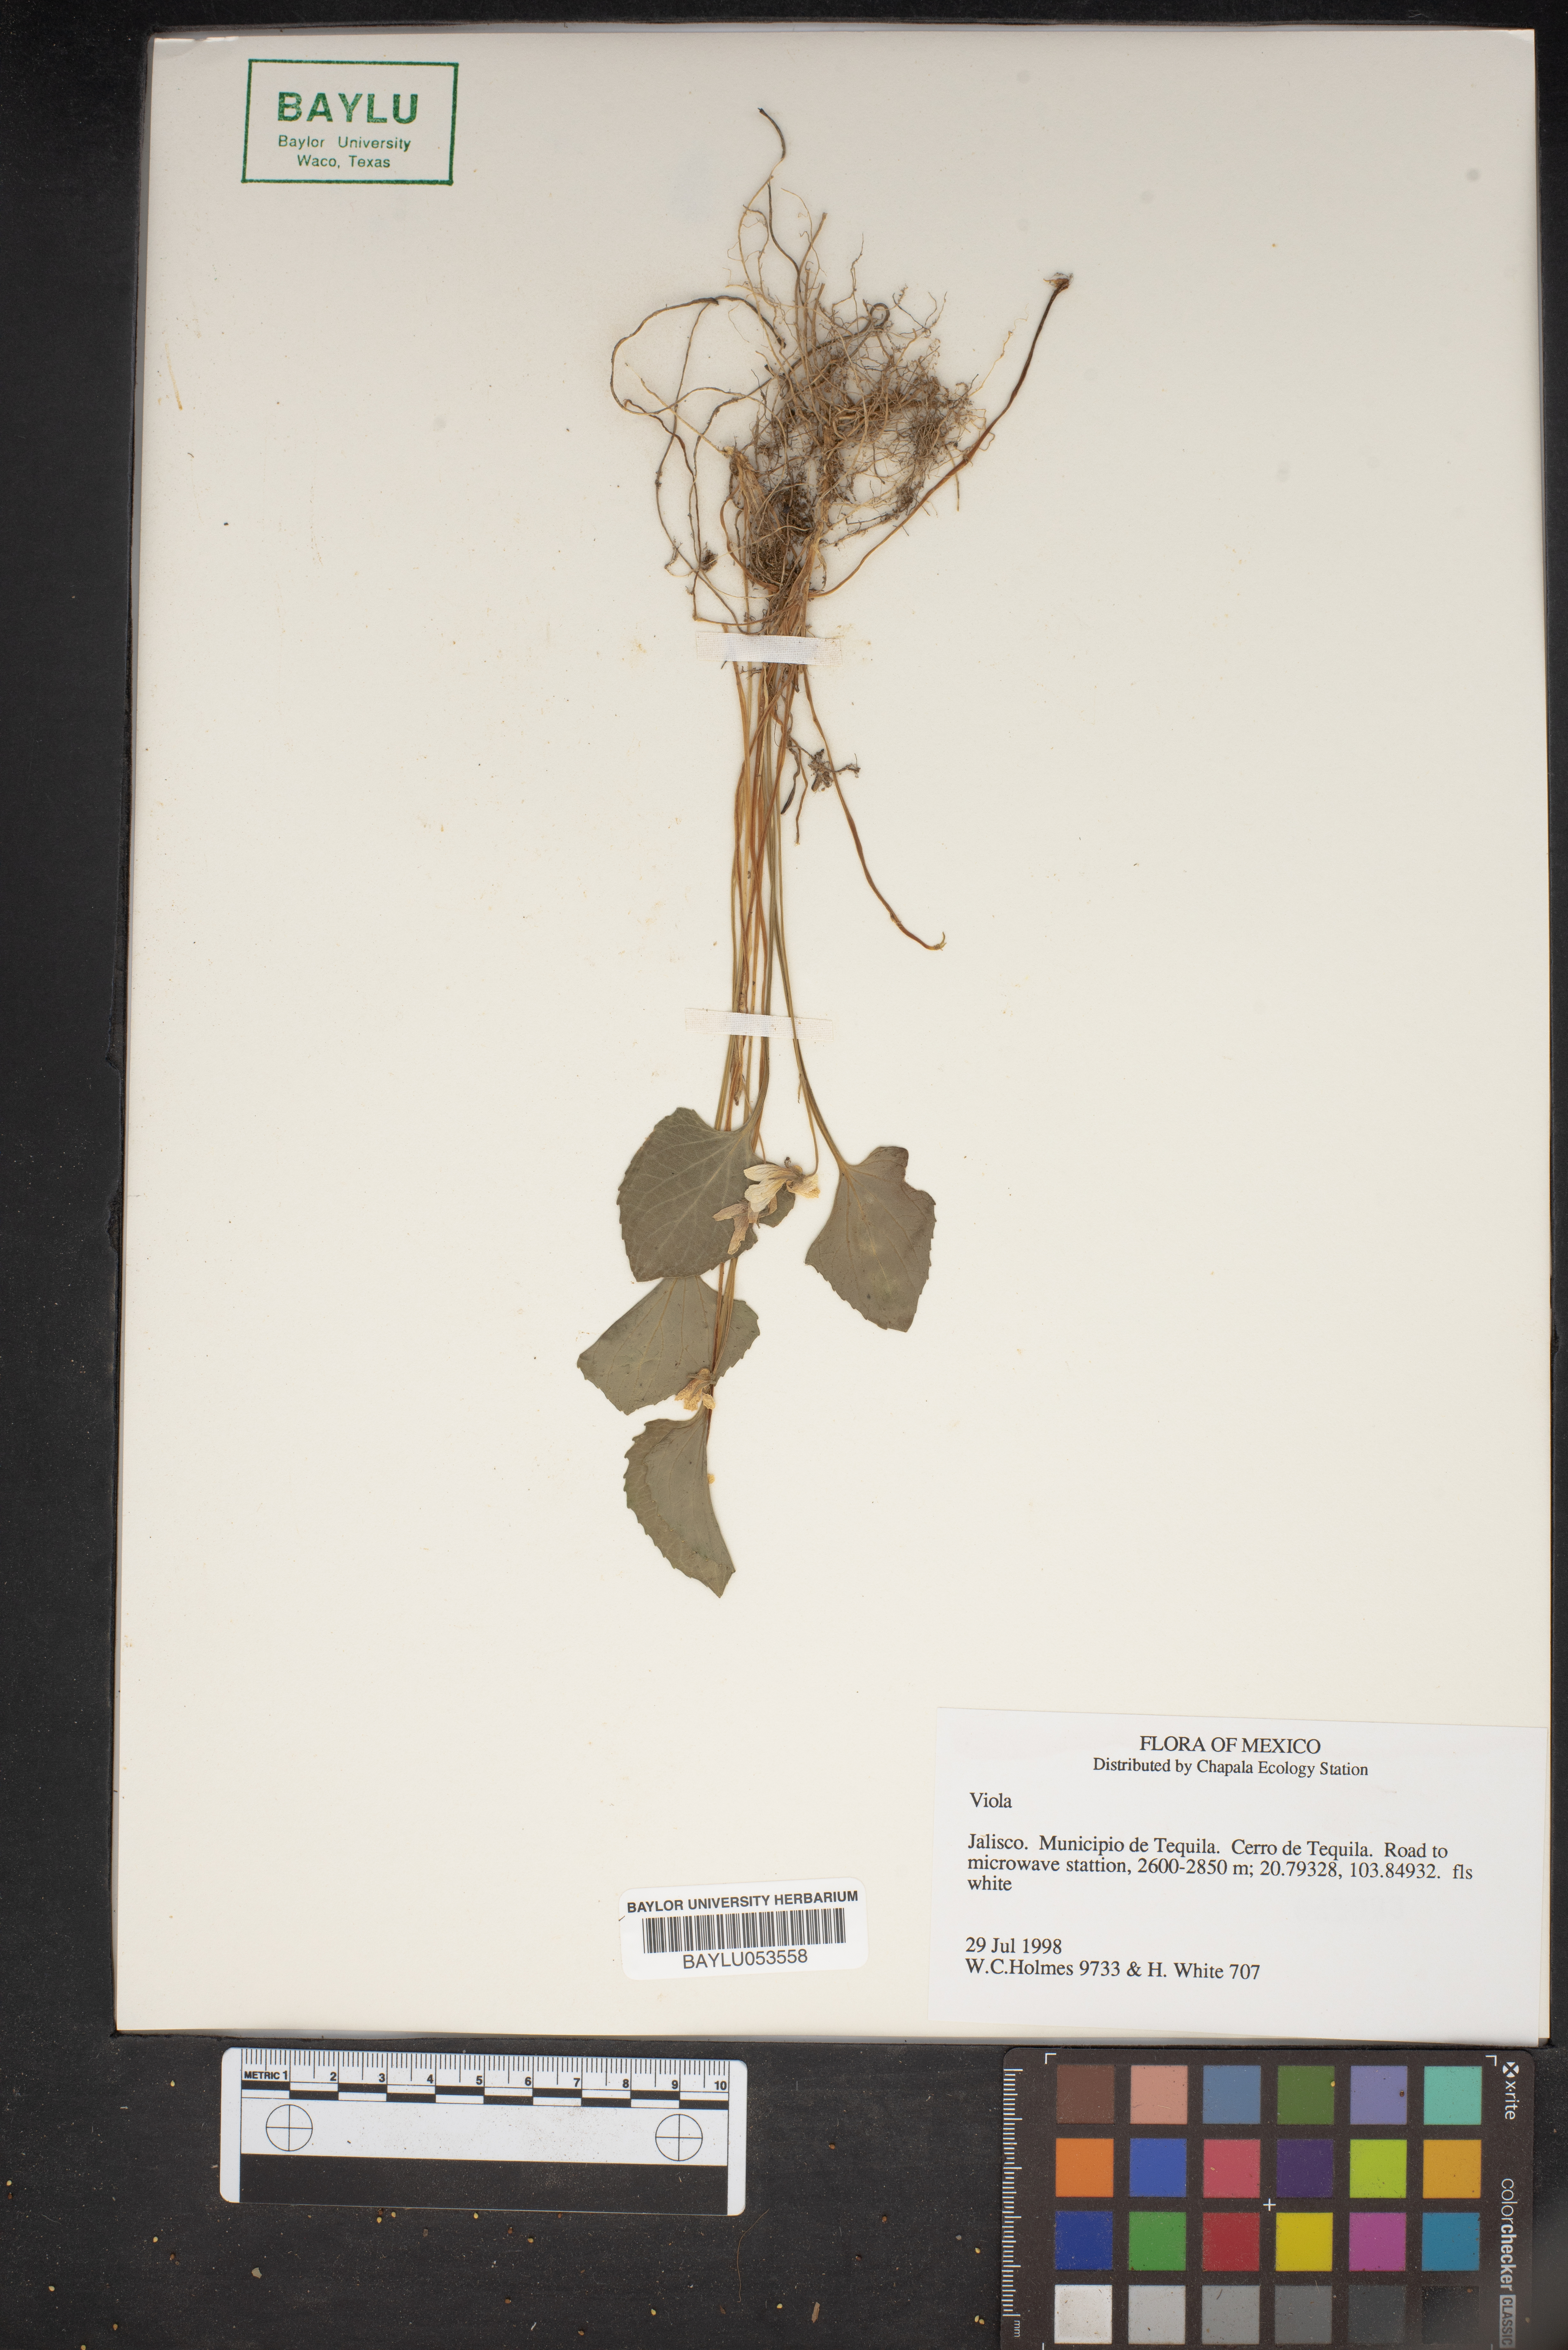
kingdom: Plantae
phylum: Tracheophyta
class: Magnoliopsida
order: Malpighiales
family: Violaceae
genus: Viola
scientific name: Viola
